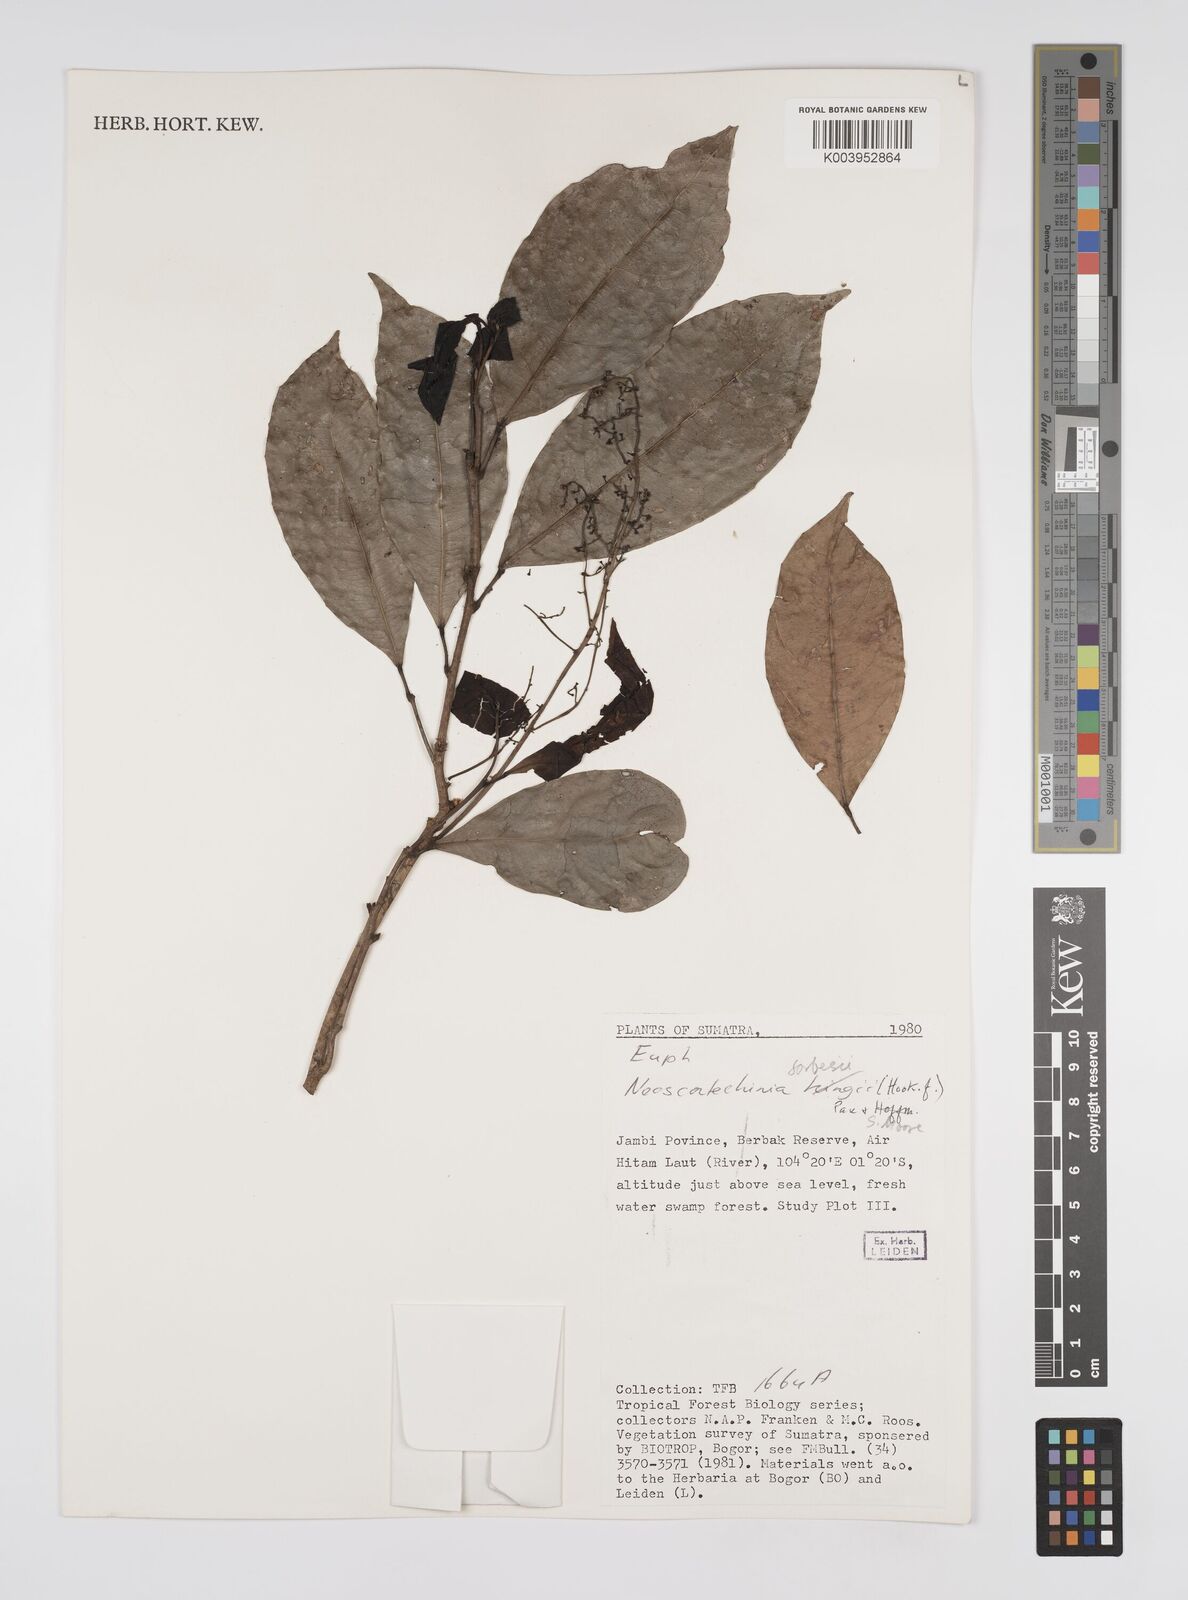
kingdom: Plantae
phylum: Tracheophyta
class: Magnoliopsida
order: Malpighiales
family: Euphorbiaceae
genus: Neoscortechinia
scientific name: Neoscortechinia philippinensis
